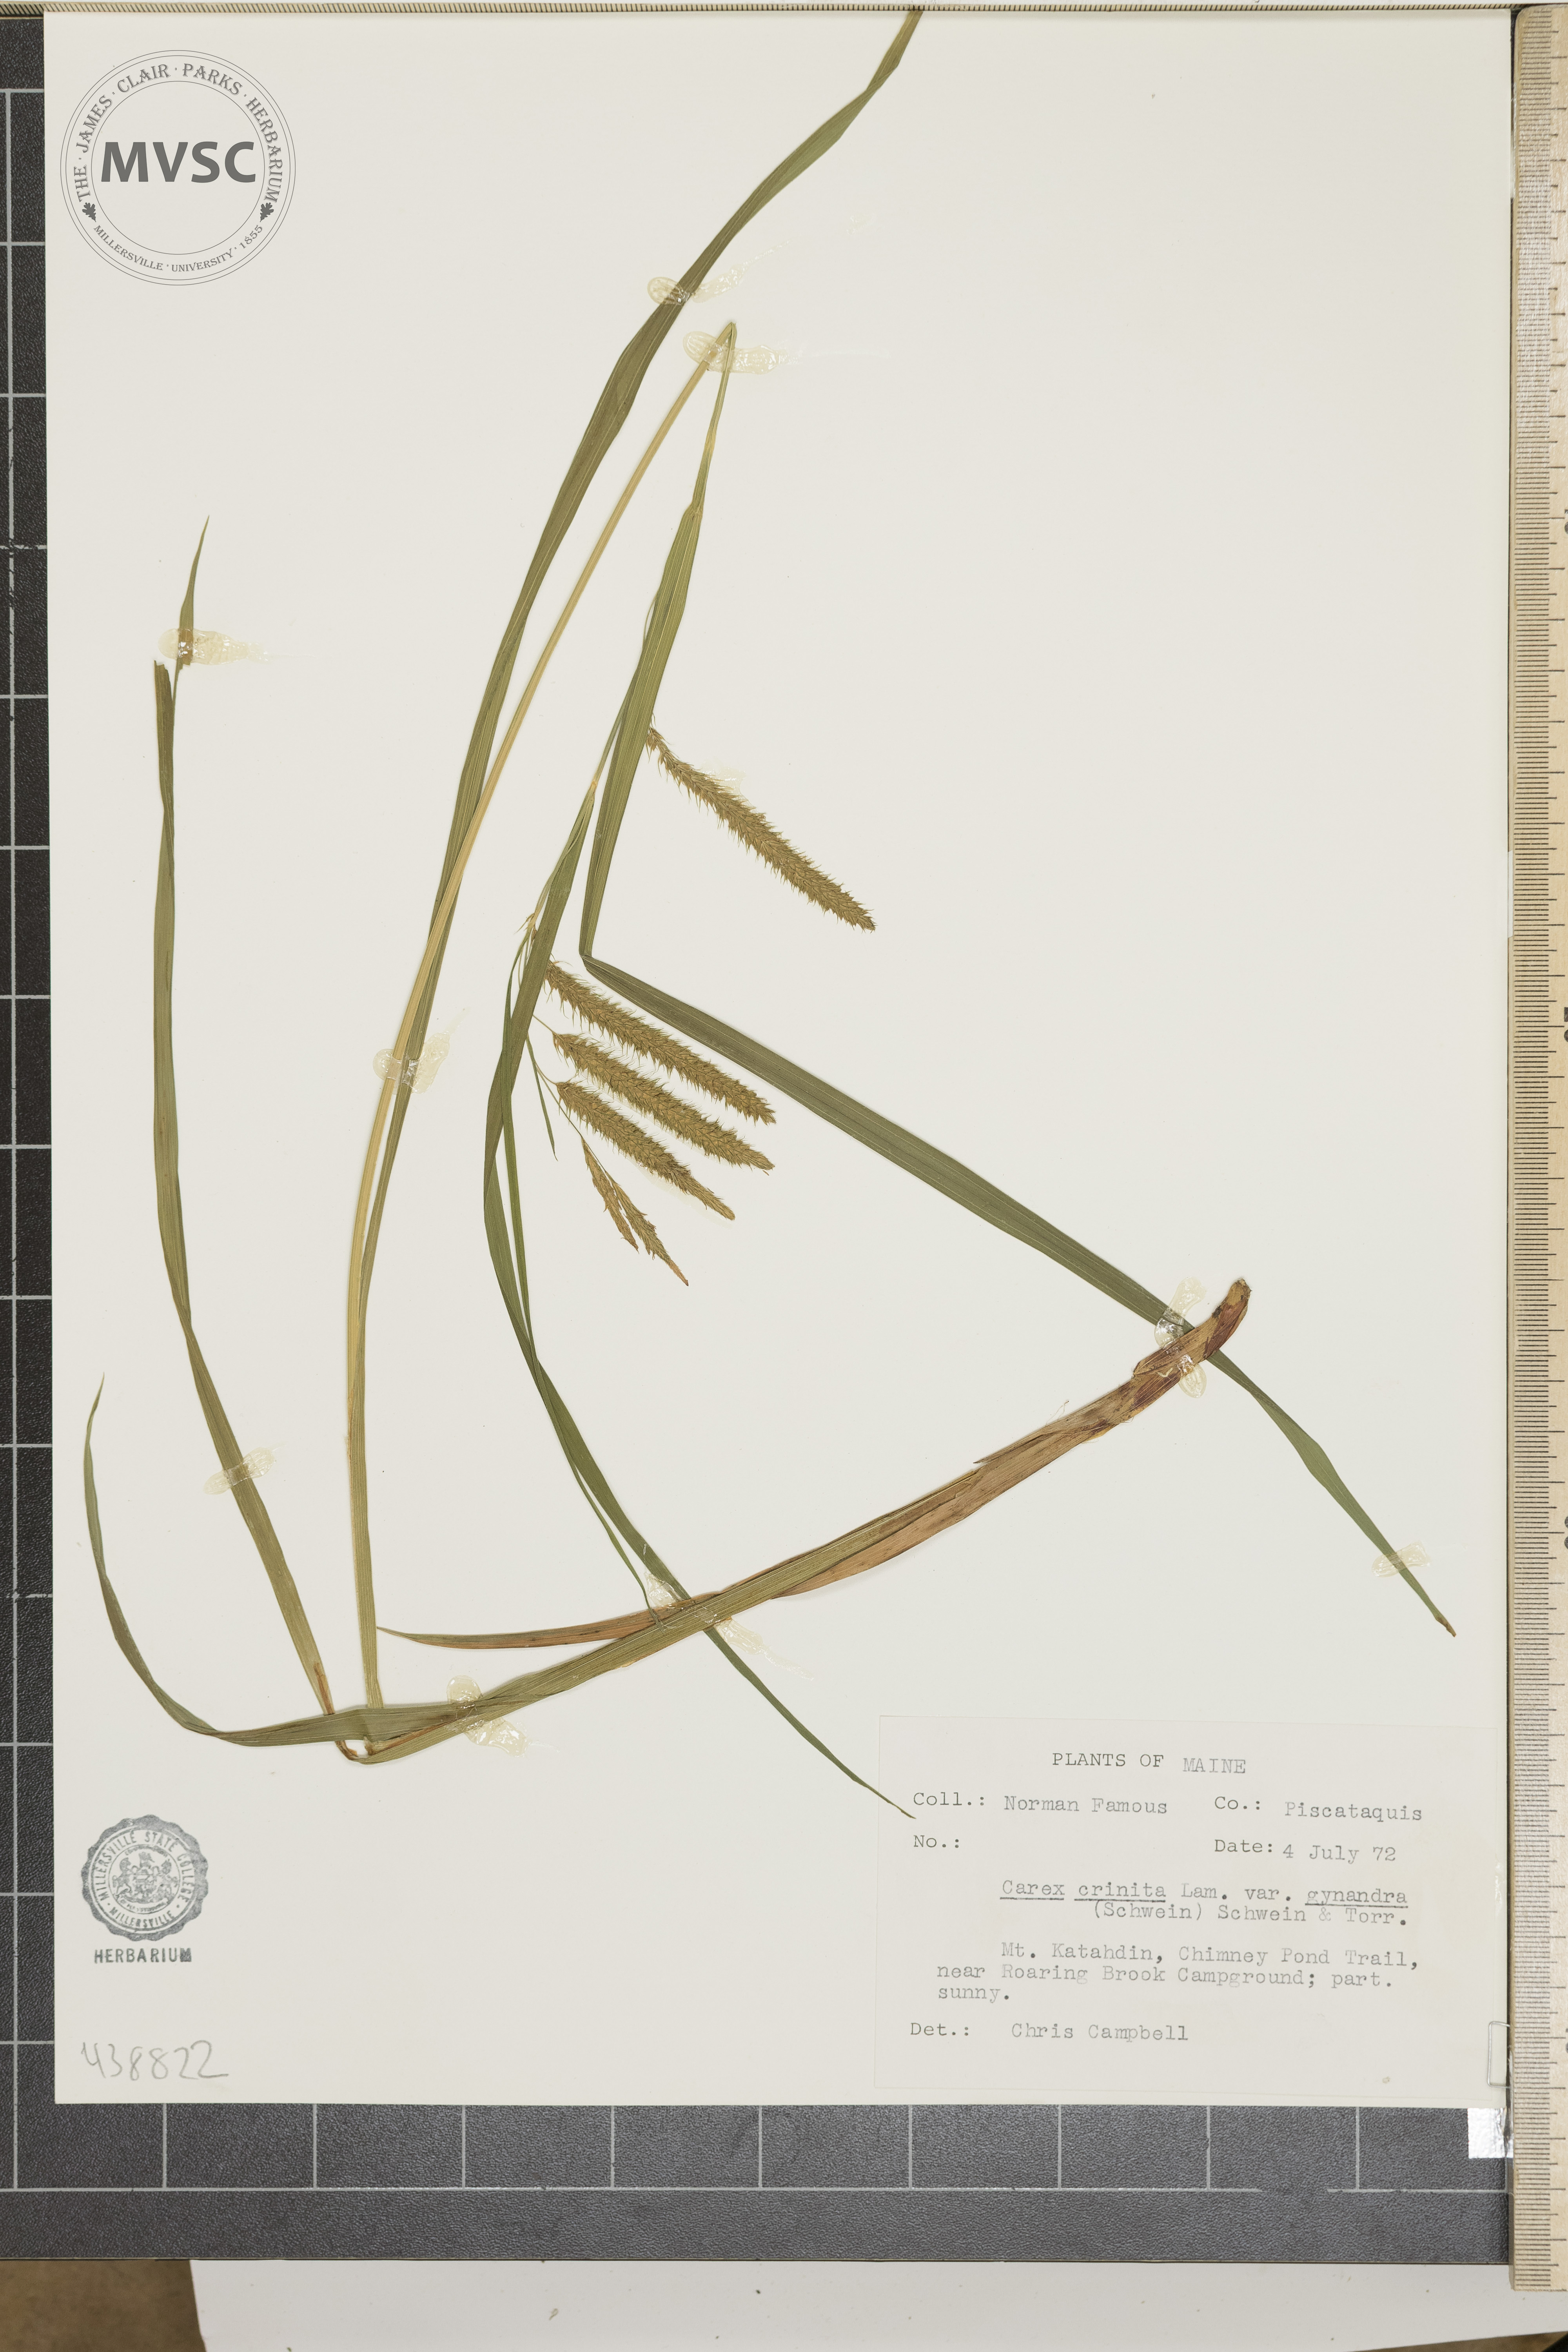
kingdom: Plantae
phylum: Tracheophyta
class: Liliopsida
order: Poales
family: Cyperaceae
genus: Carex
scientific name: Carex gynandra
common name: Nodding sedge
